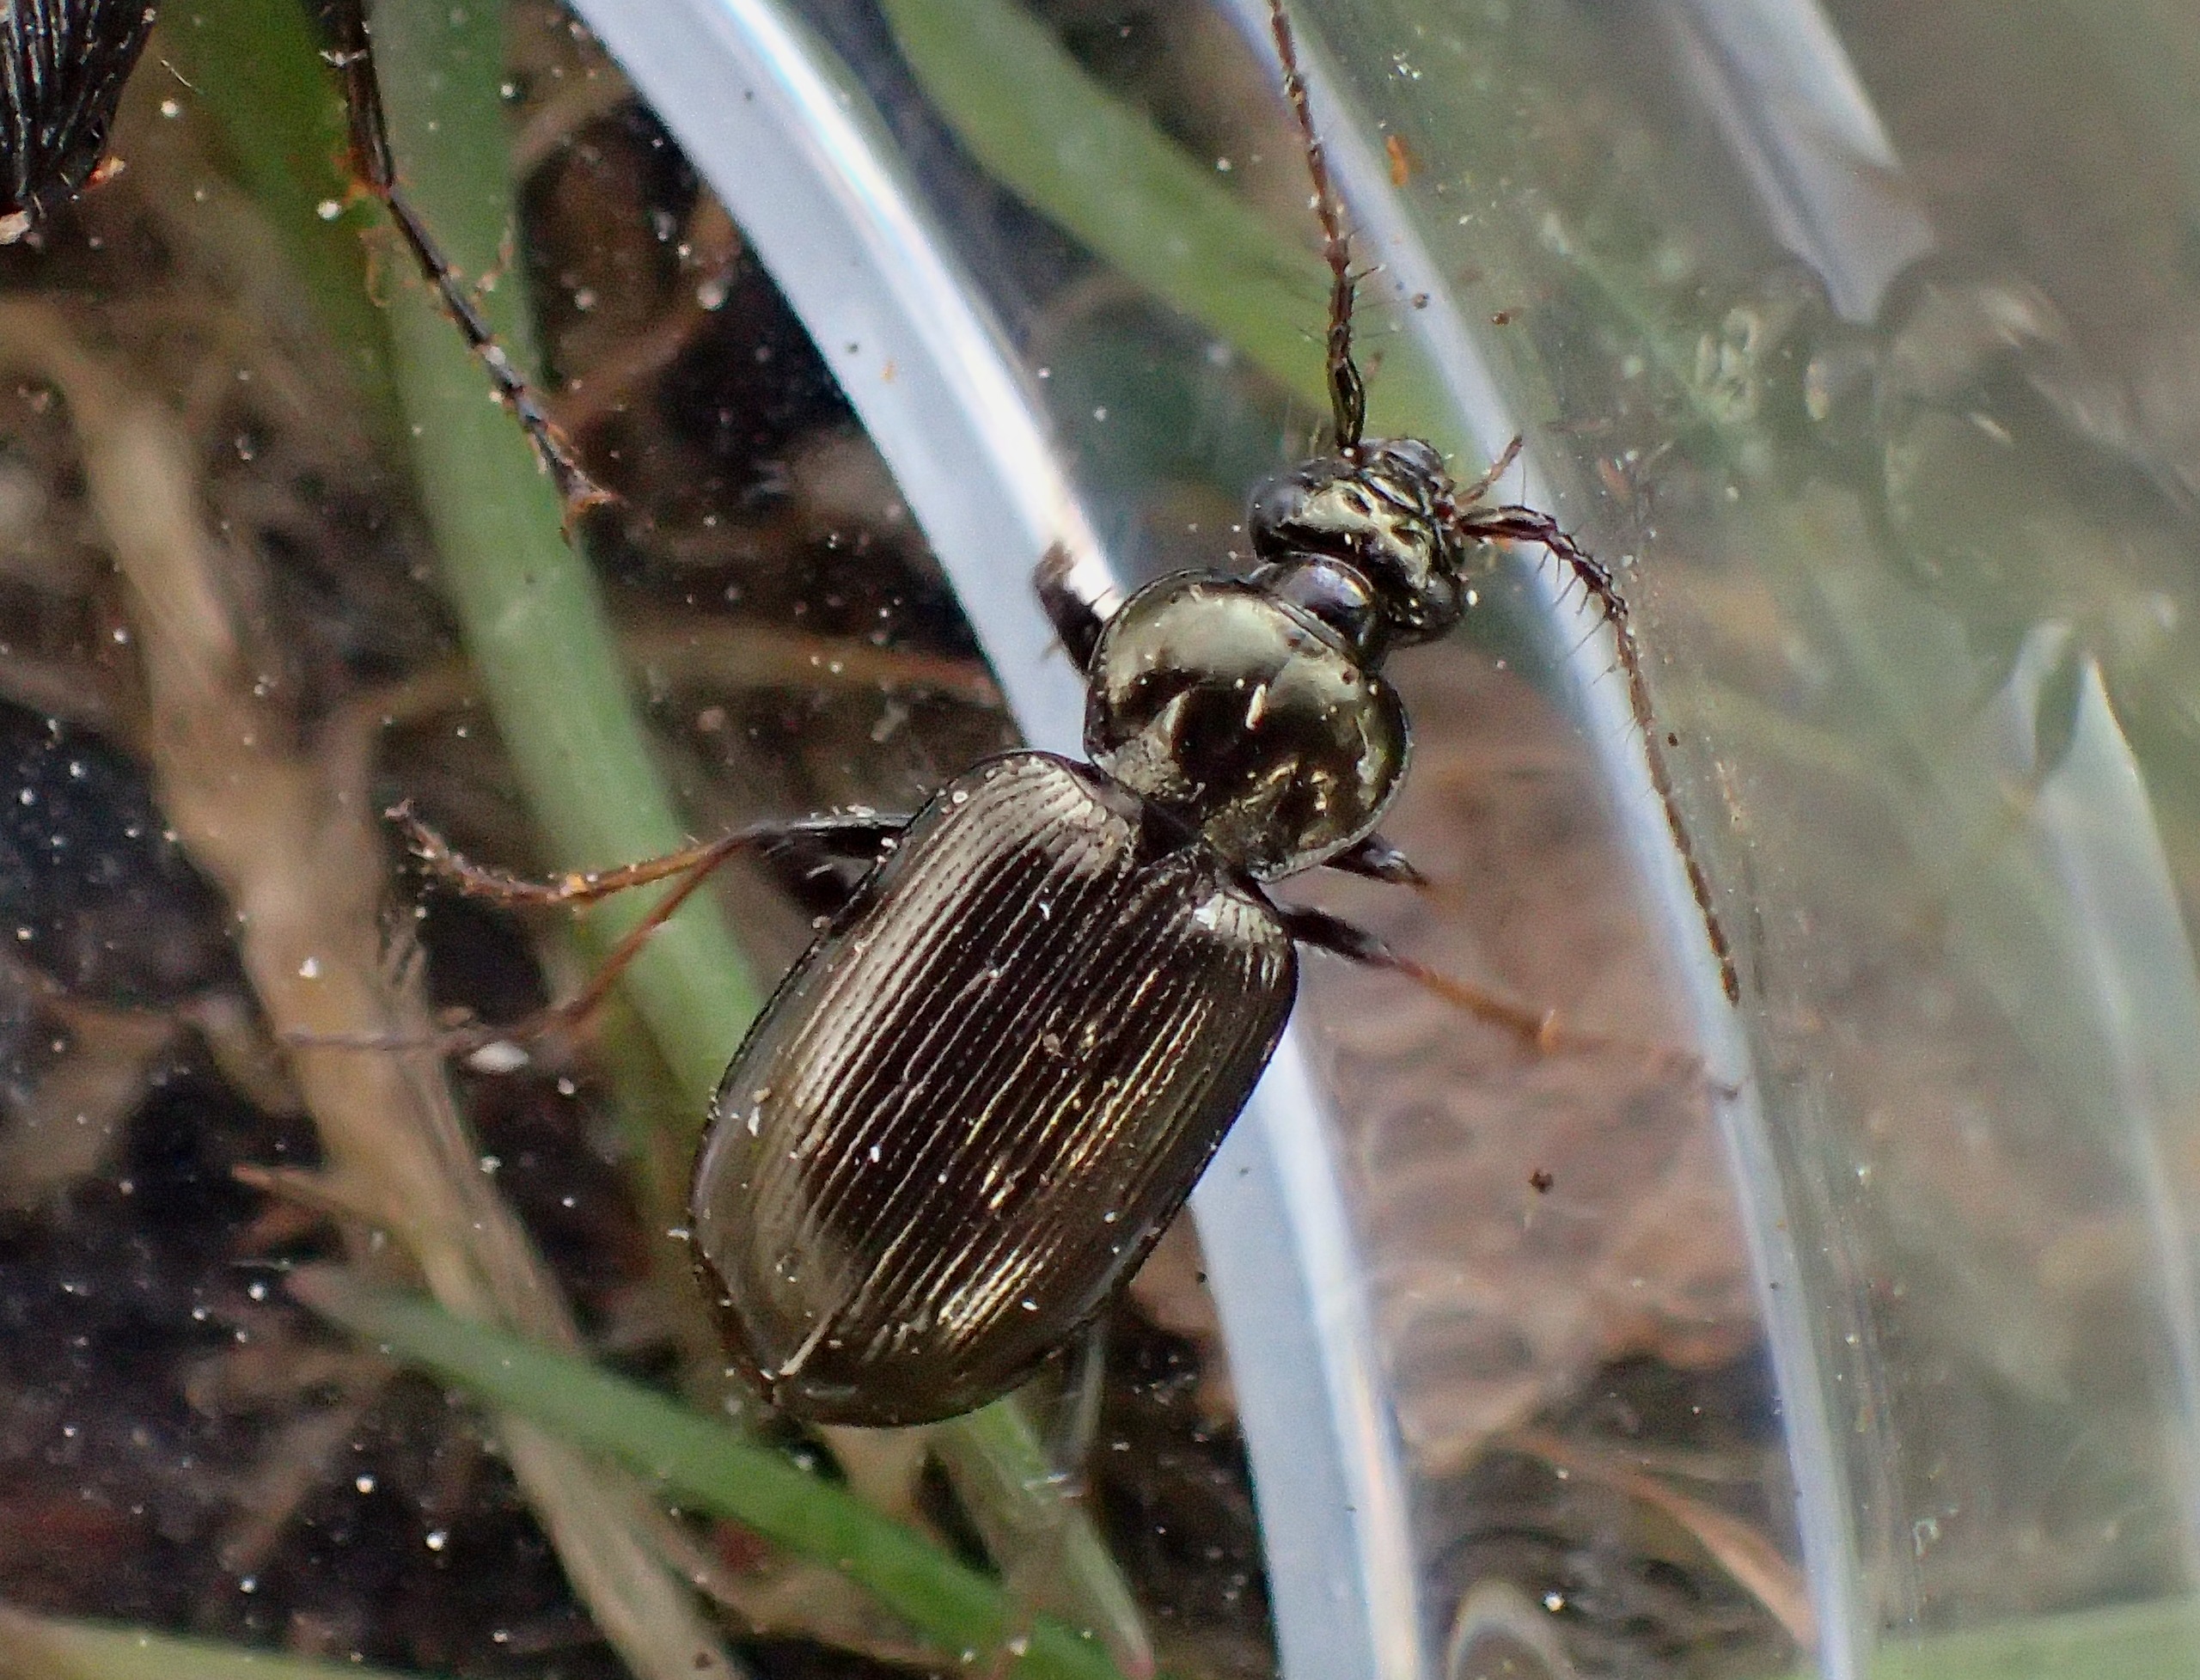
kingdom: Animalia
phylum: Arthropoda
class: Insecta
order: Coleoptera
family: Carabidae
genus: Loricera
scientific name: Loricera pilicornis
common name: Børsteløber
